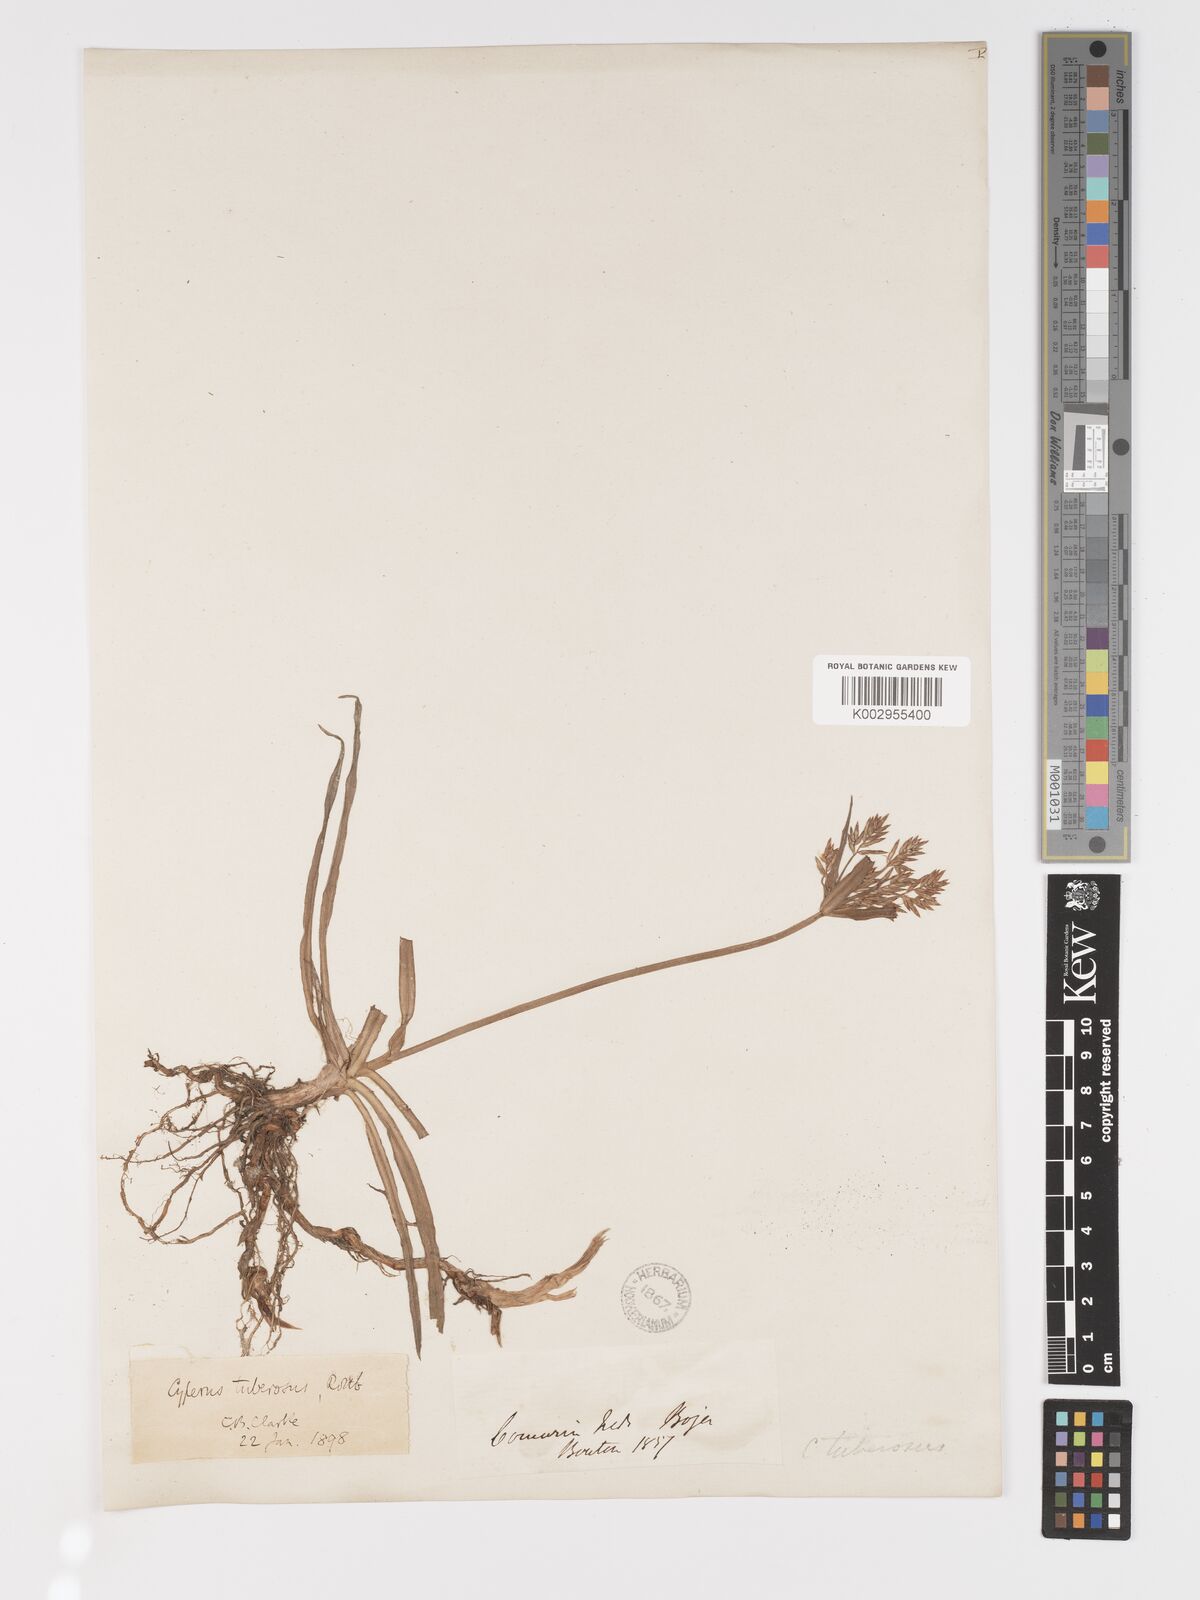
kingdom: Plantae
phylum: Tracheophyta
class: Liliopsida
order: Poales
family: Cyperaceae
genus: Cyperus
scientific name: Cyperus tuberosus
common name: Nut grass
